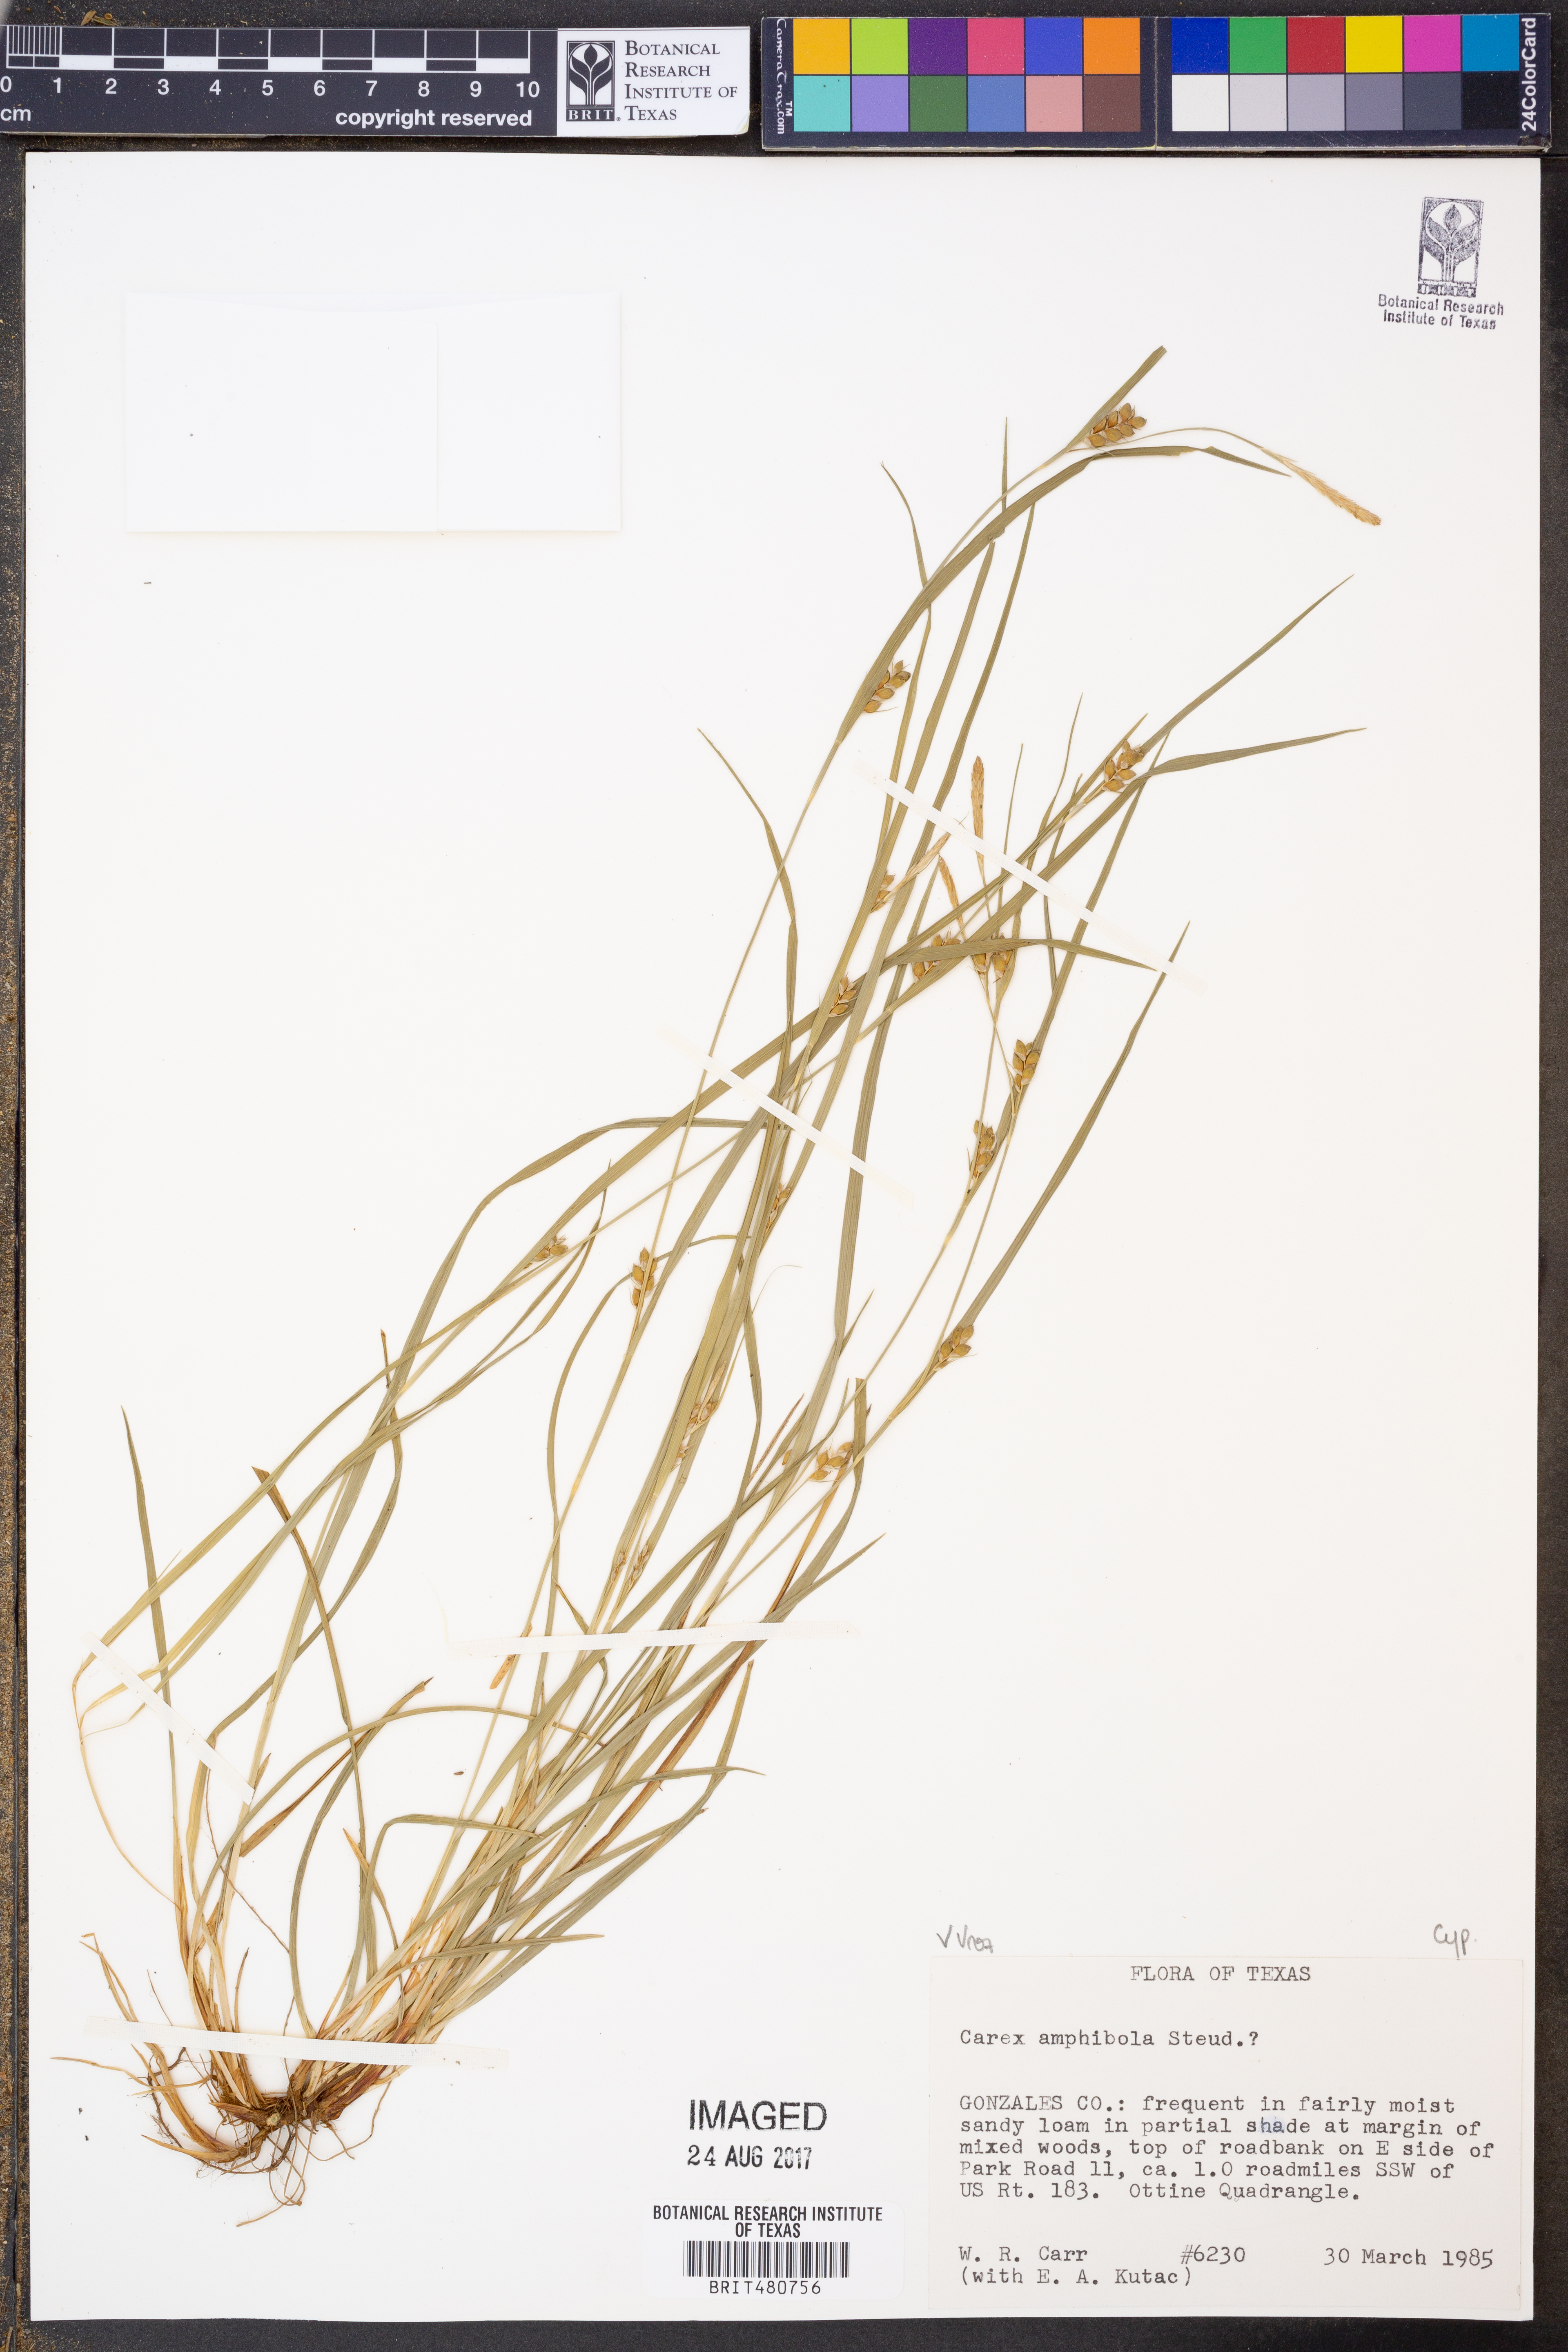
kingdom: Plantae
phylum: Tracheophyta
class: Liliopsida
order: Poales
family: Cyperaceae
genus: Carex
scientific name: Carex amphibola
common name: Amphibious sedge
